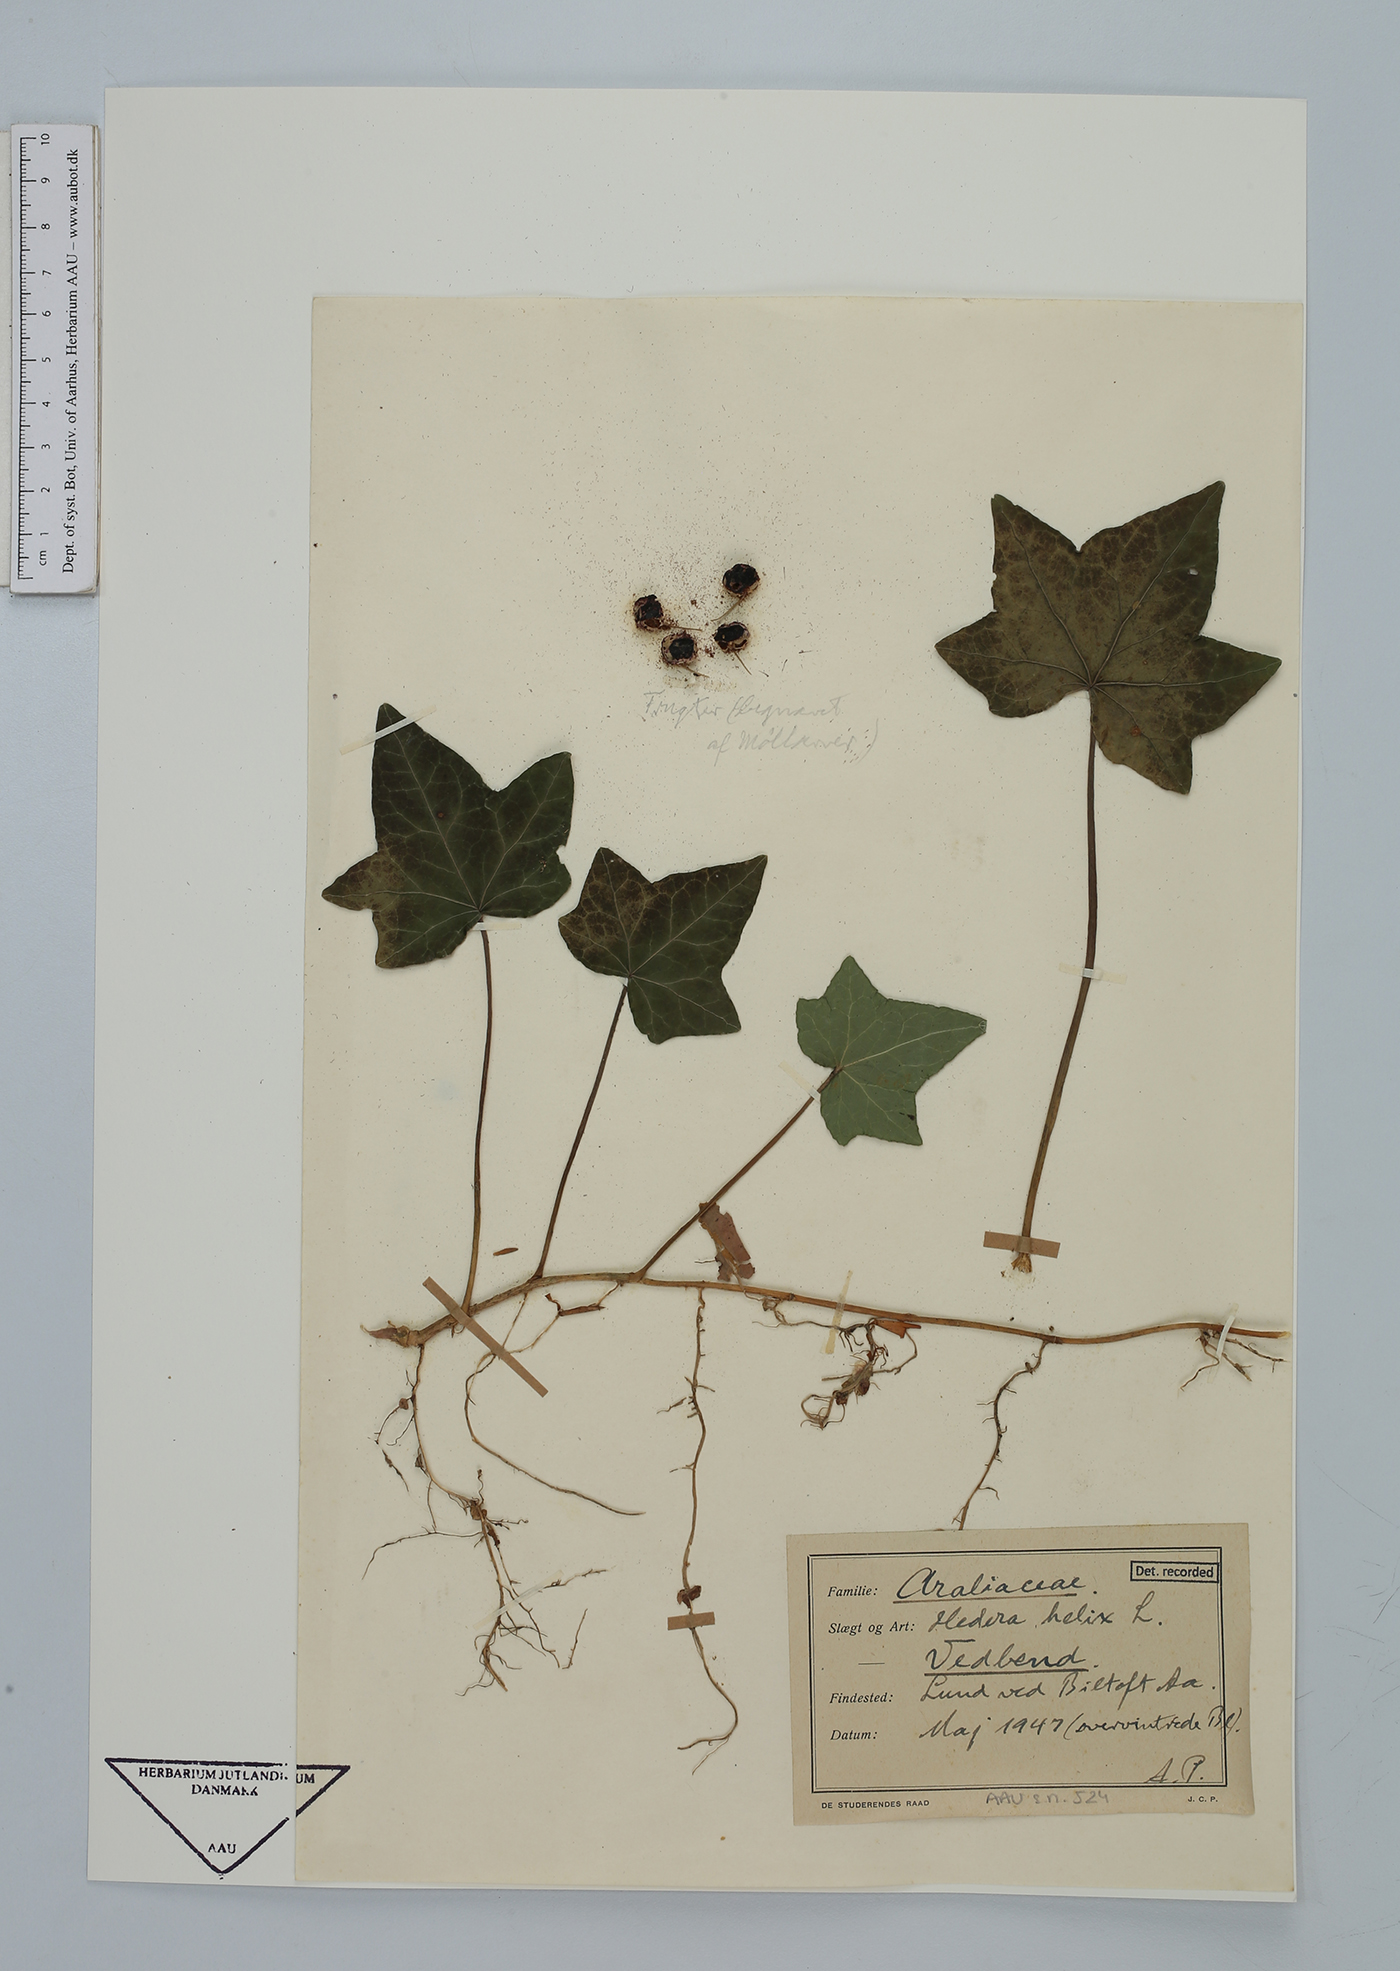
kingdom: Plantae
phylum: Tracheophyta
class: Magnoliopsida
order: Apiales
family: Araliaceae
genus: Hedera
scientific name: Hedera helix
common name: Ivy
